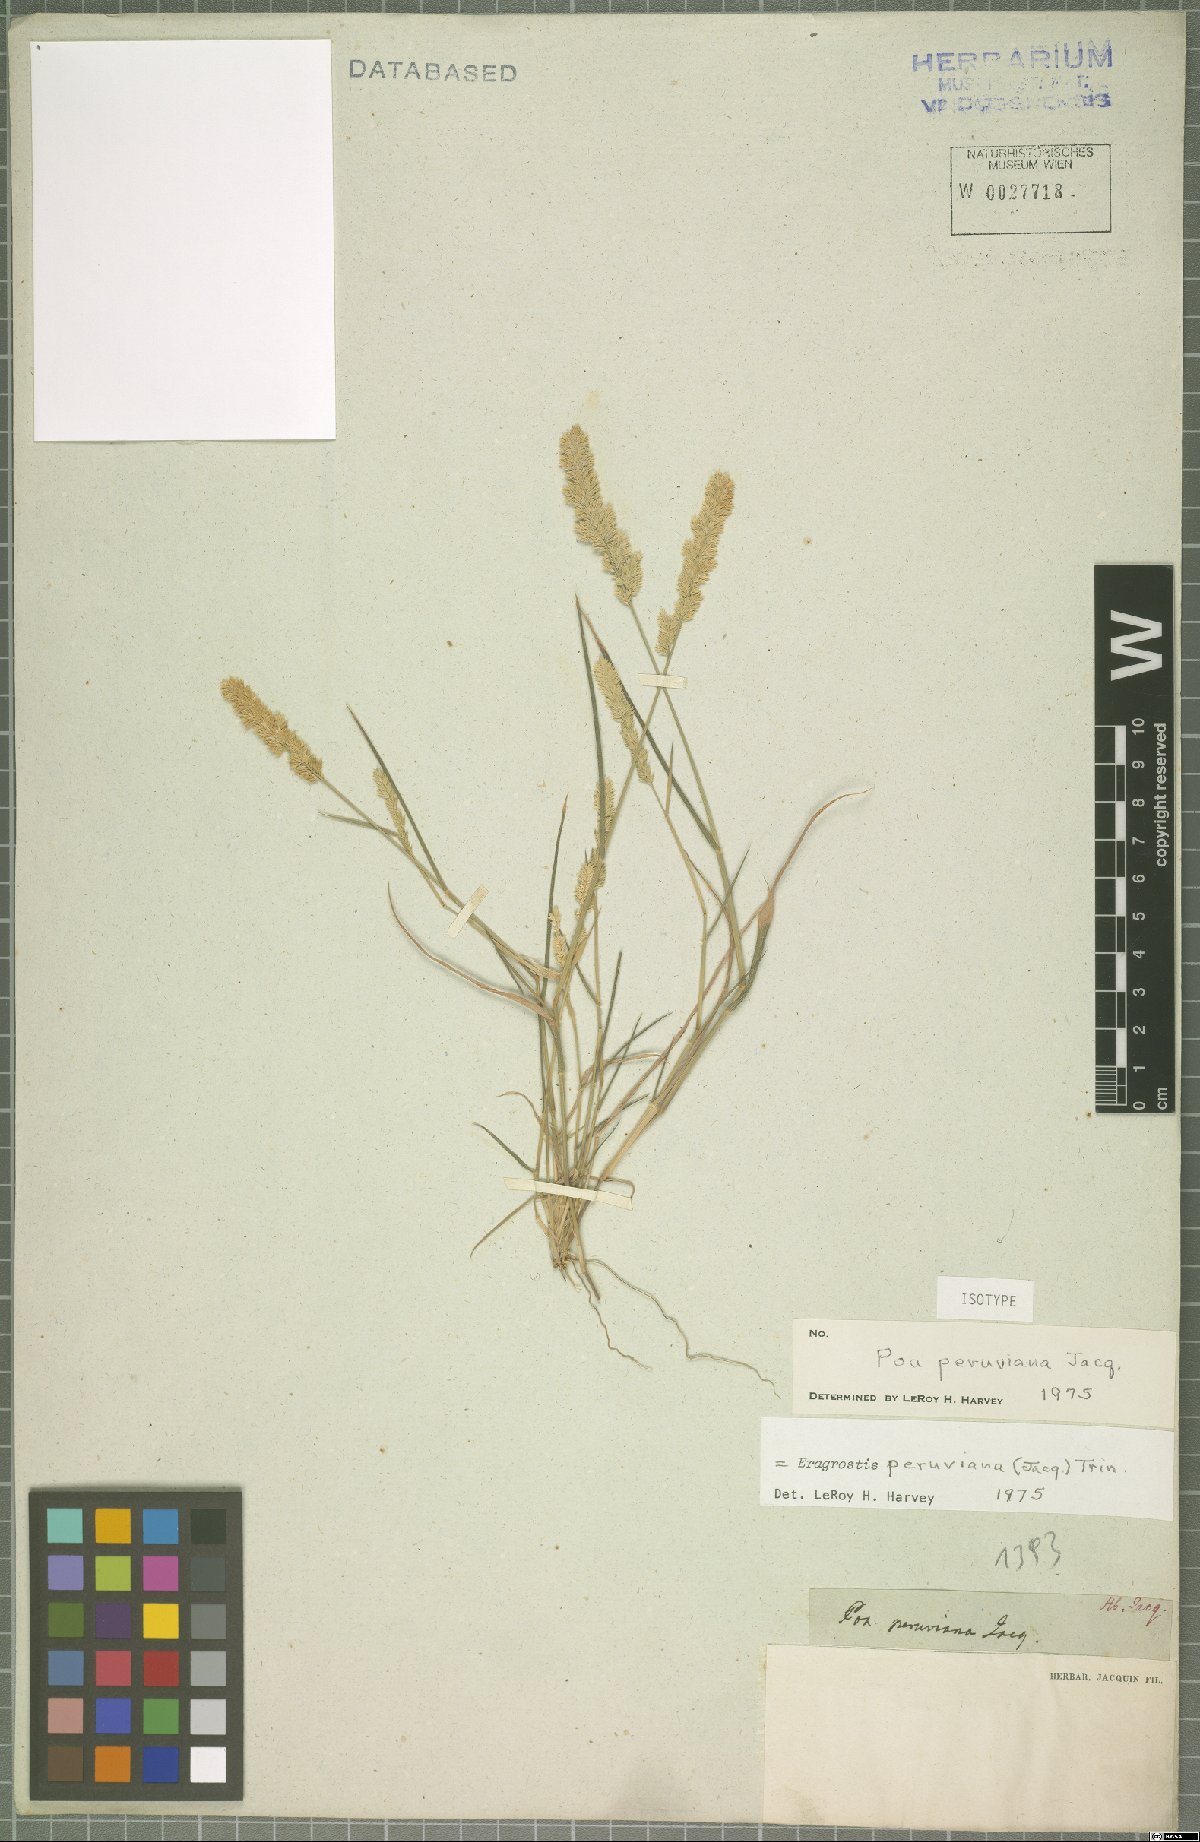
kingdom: Plantae
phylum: Tracheophyta
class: Liliopsida
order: Poales
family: Poaceae
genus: Eragrostis
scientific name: Eragrostis peruviana
